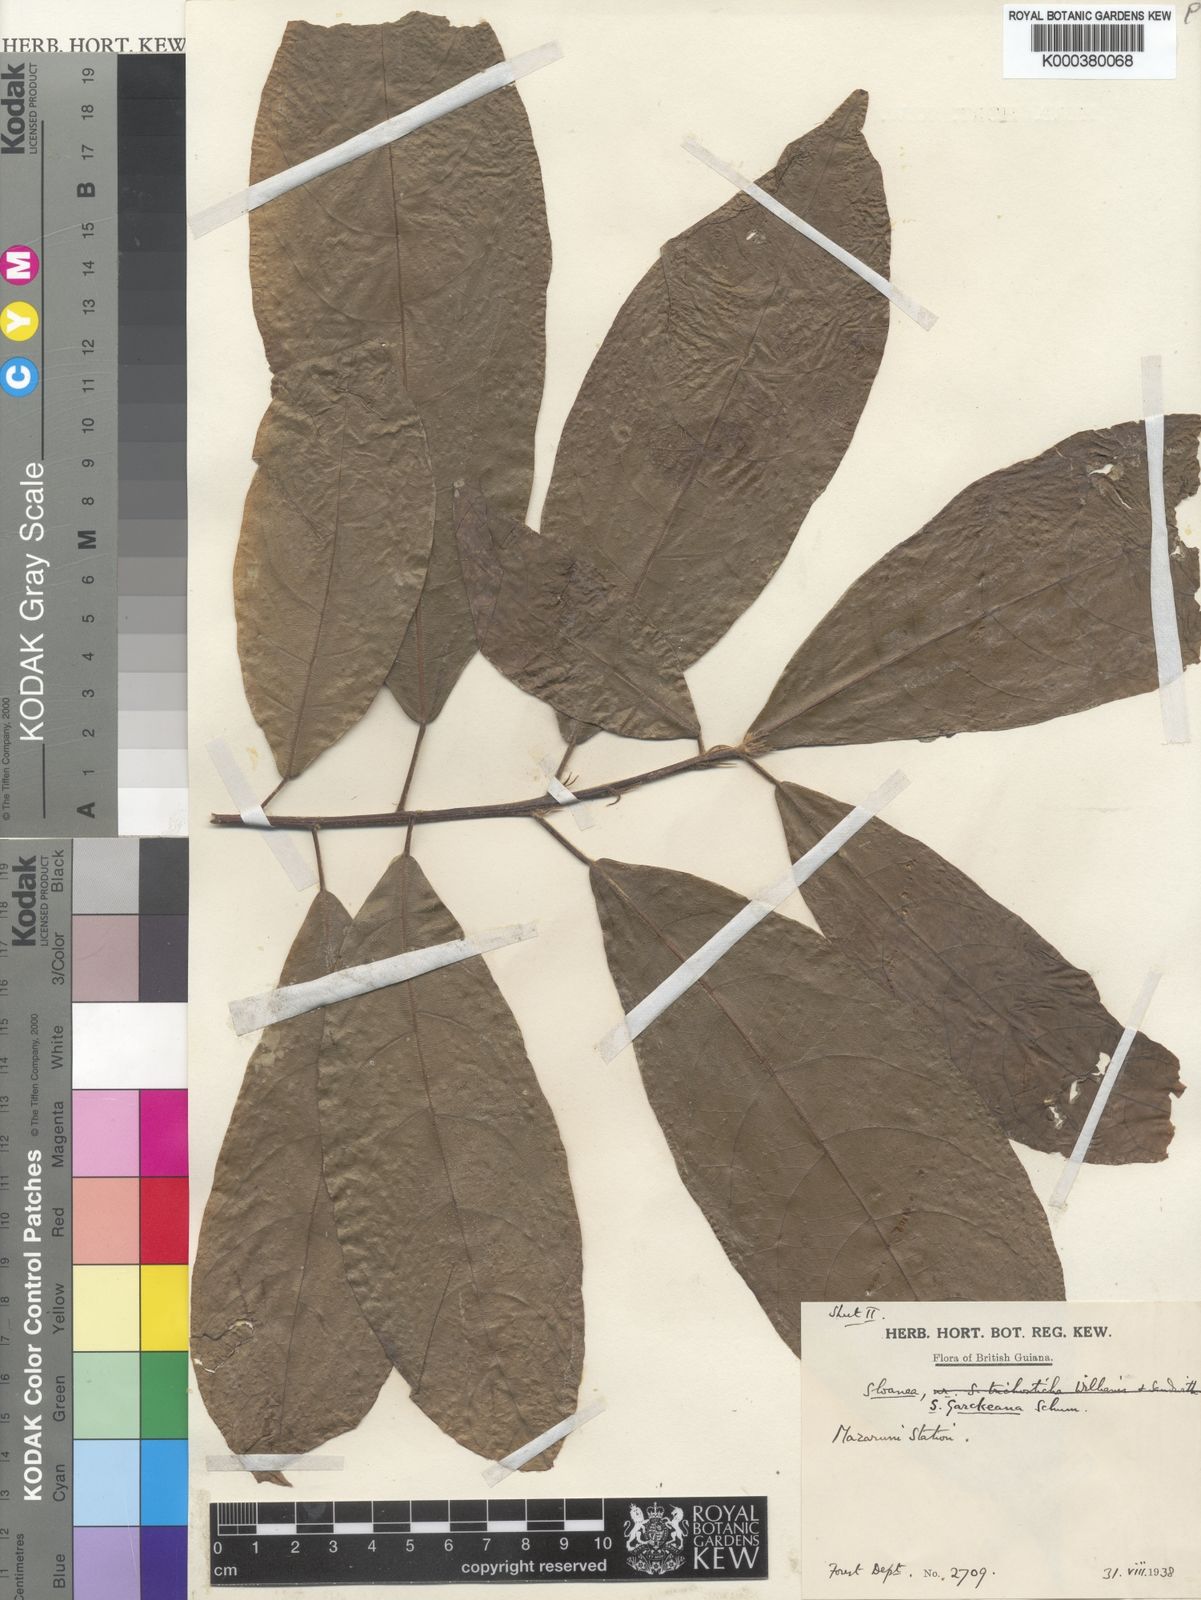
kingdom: Plantae
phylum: Tracheophyta
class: Magnoliopsida
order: Oxalidales
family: Elaeocarpaceae
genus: Sloanea
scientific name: Sloanea garckeana
